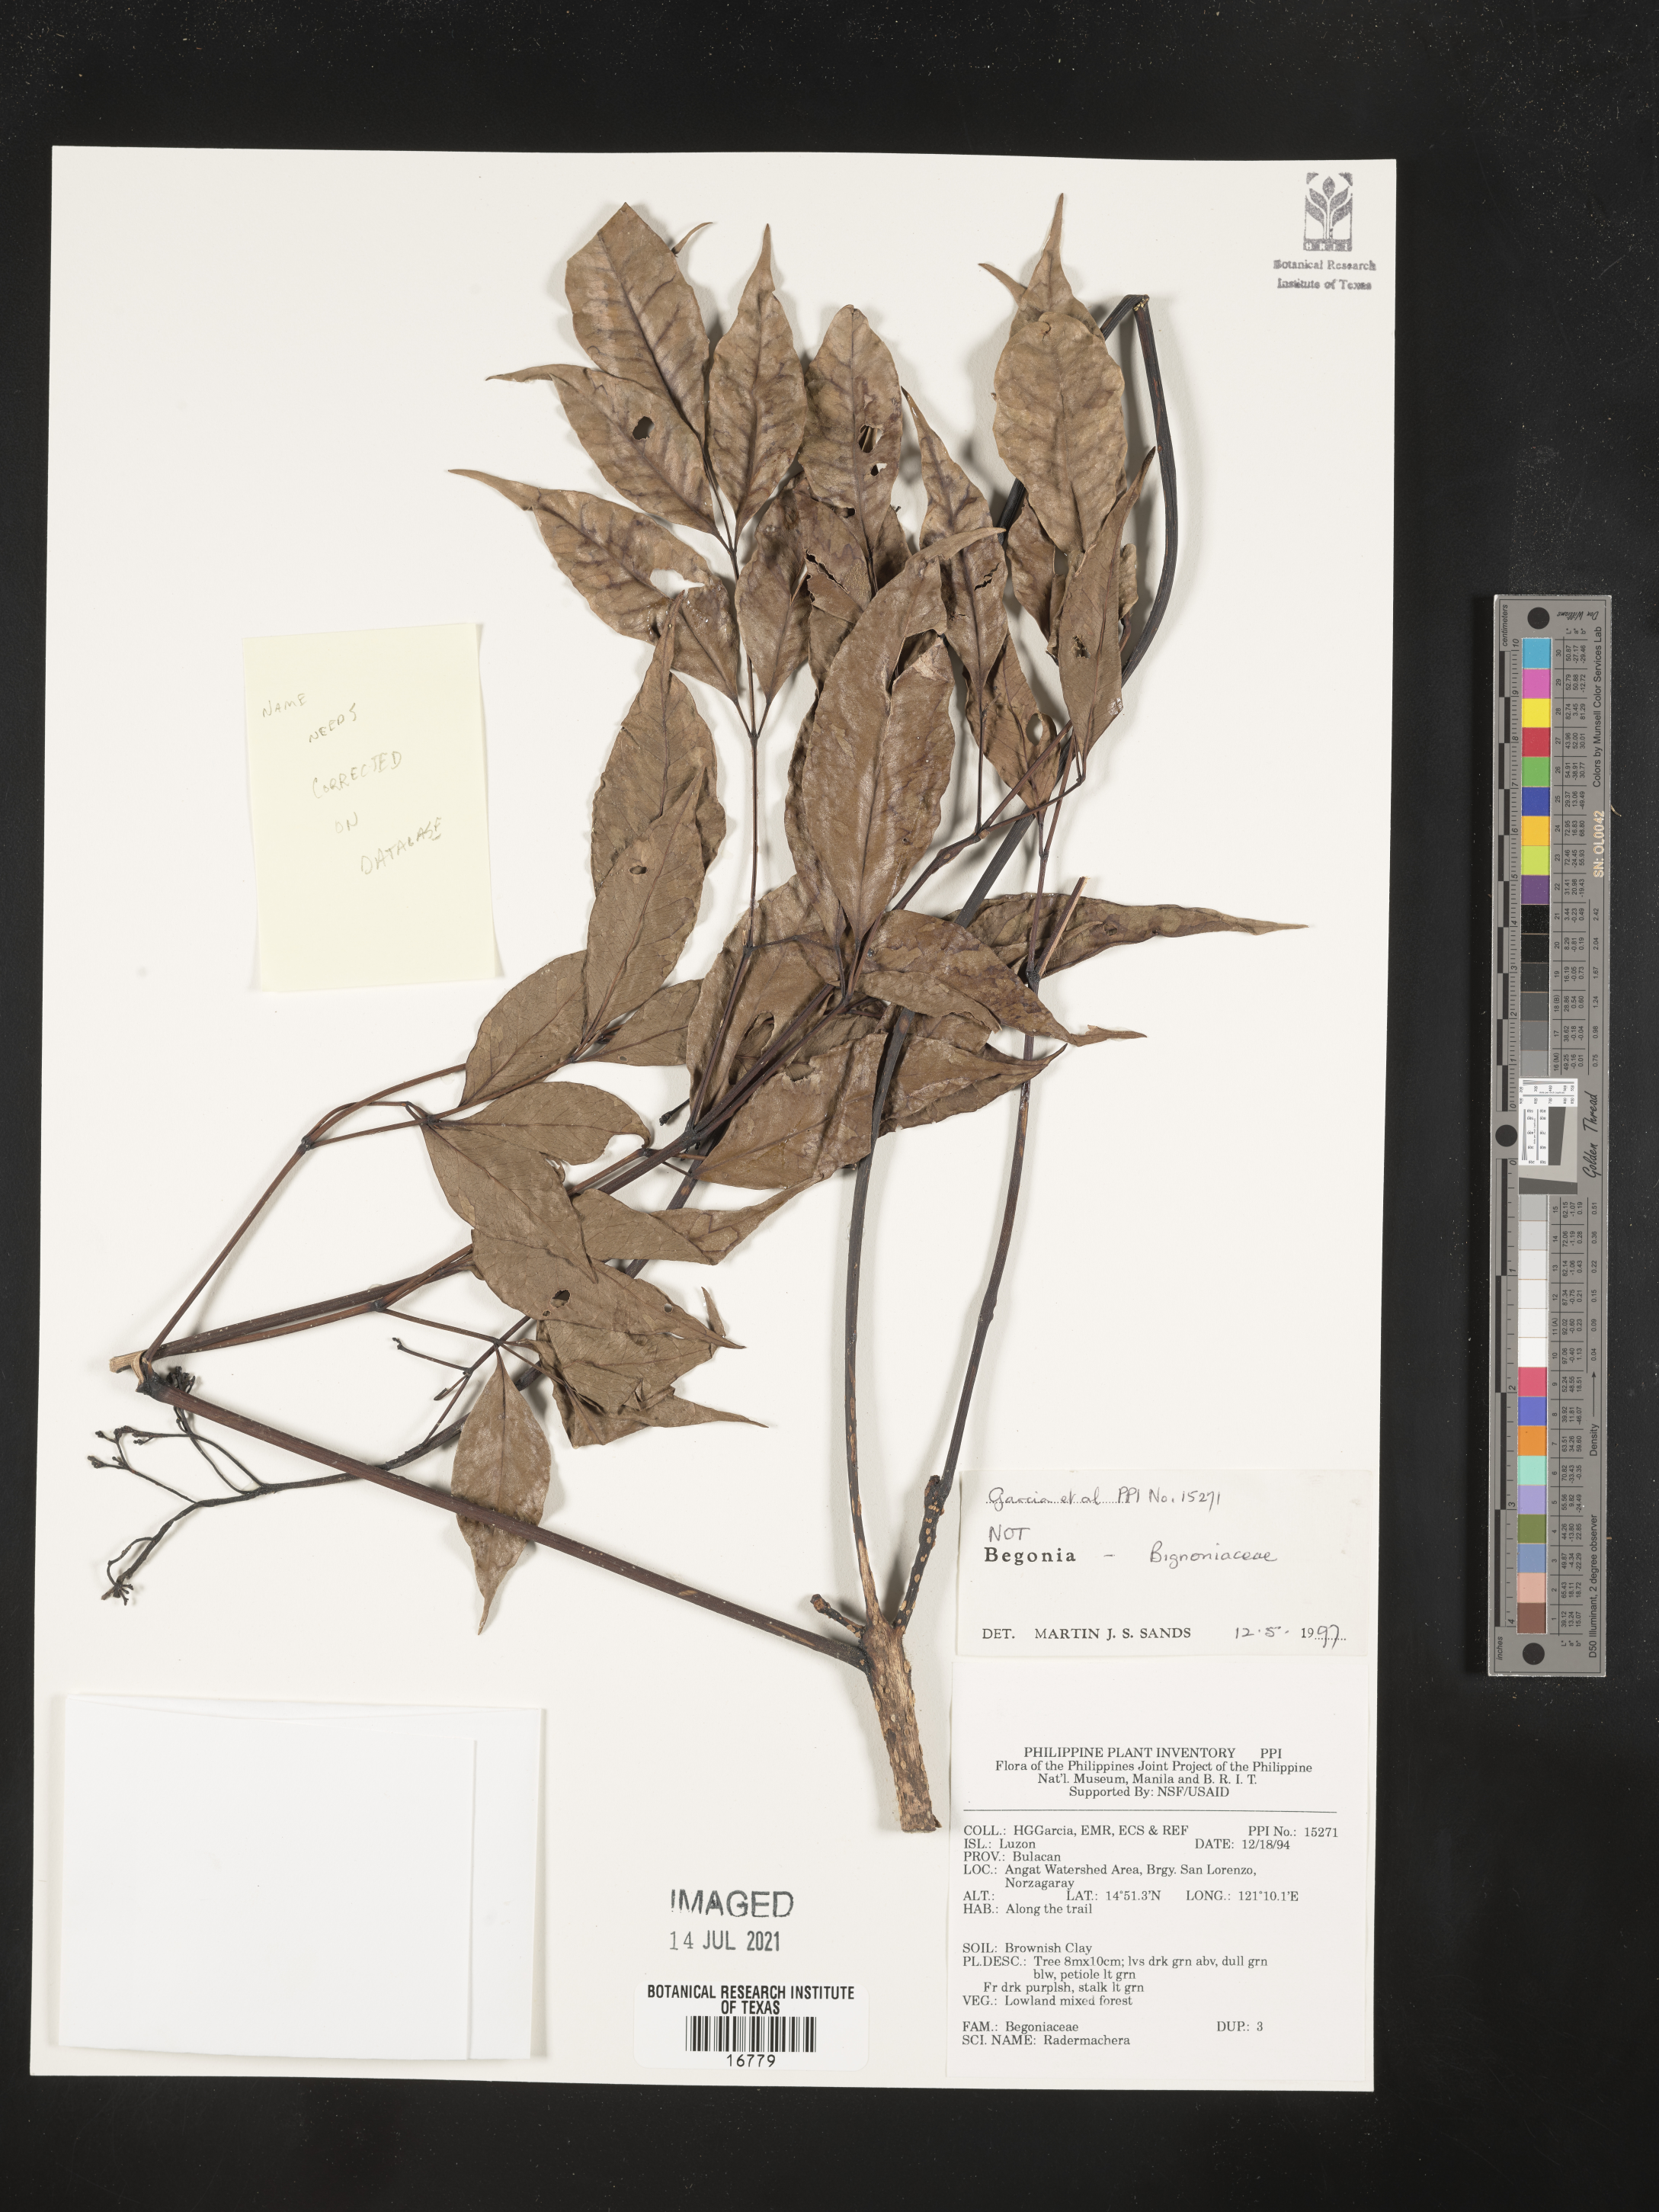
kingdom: Plantae
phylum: Tracheophyta
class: Magnoliopsida
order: Lamiales
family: Bignoniaceae
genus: Radermachera
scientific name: Radermachera
